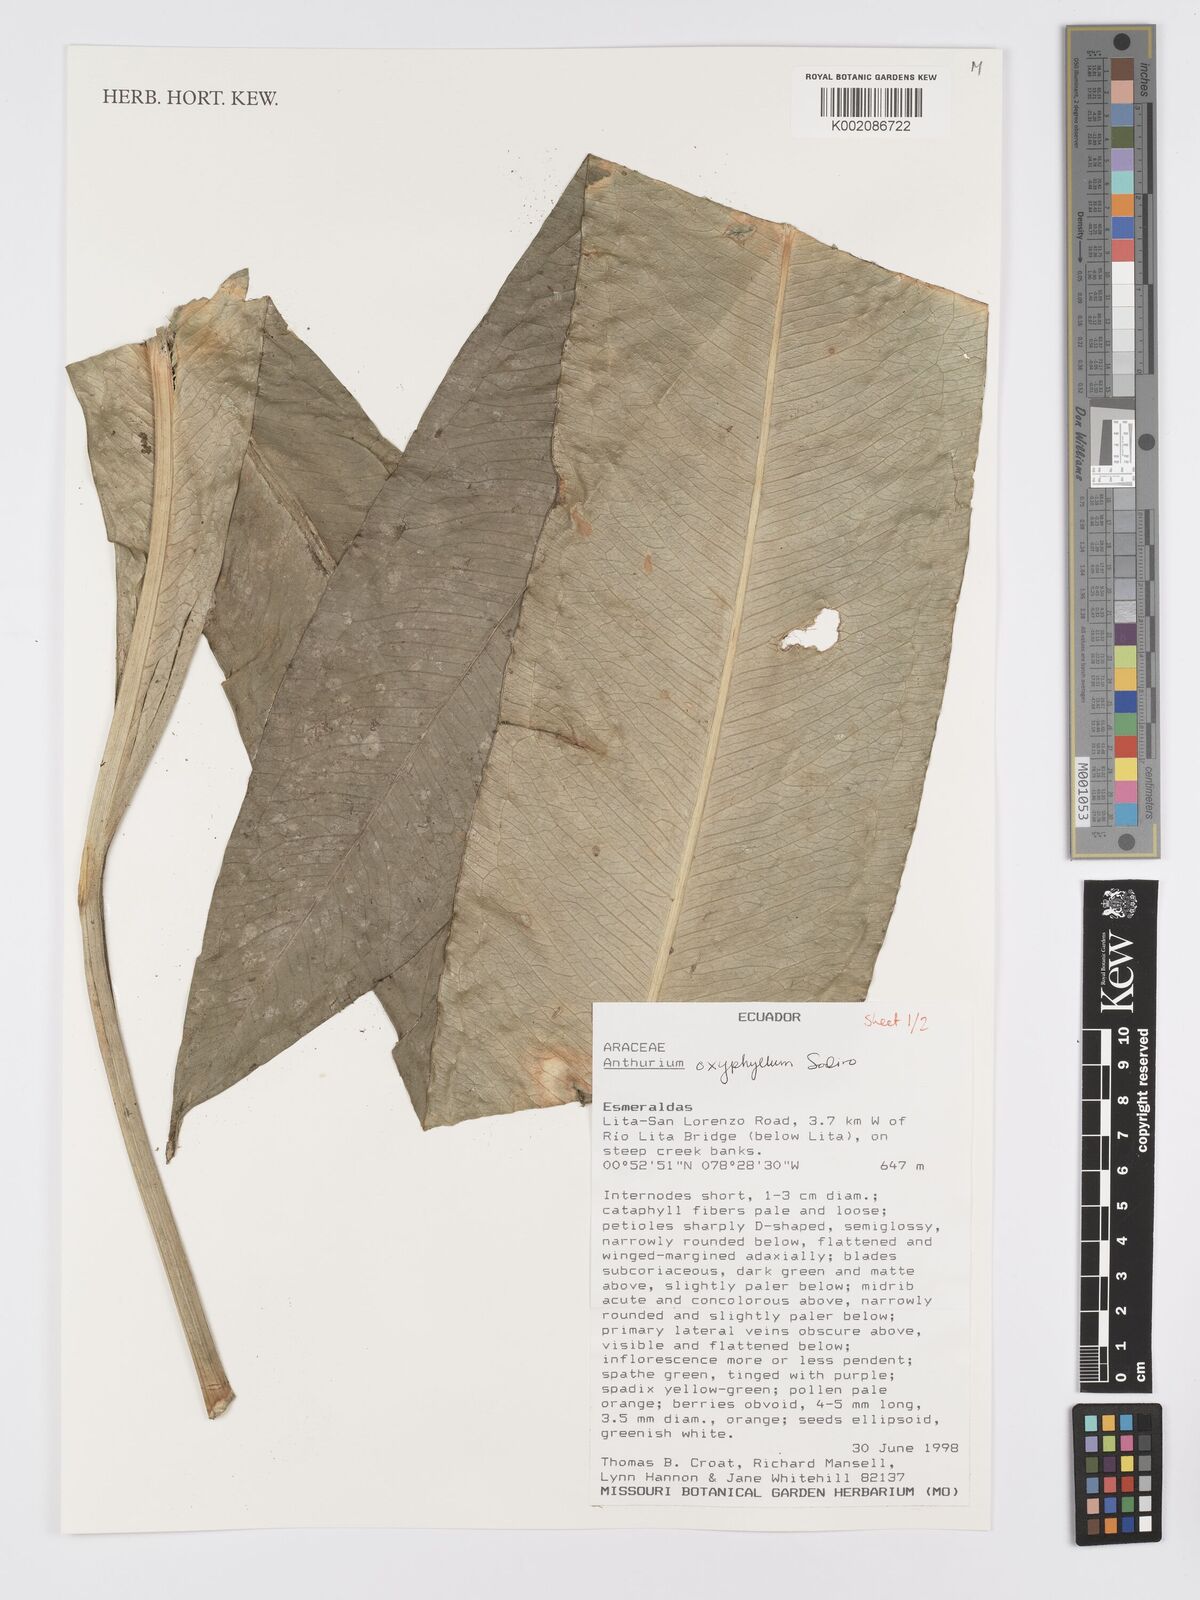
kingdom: Plantae
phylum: Tracheophyta
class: Liliopsida
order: Alismatales
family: Araceae
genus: Anthurium
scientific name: Anthurium oxyphyllum
